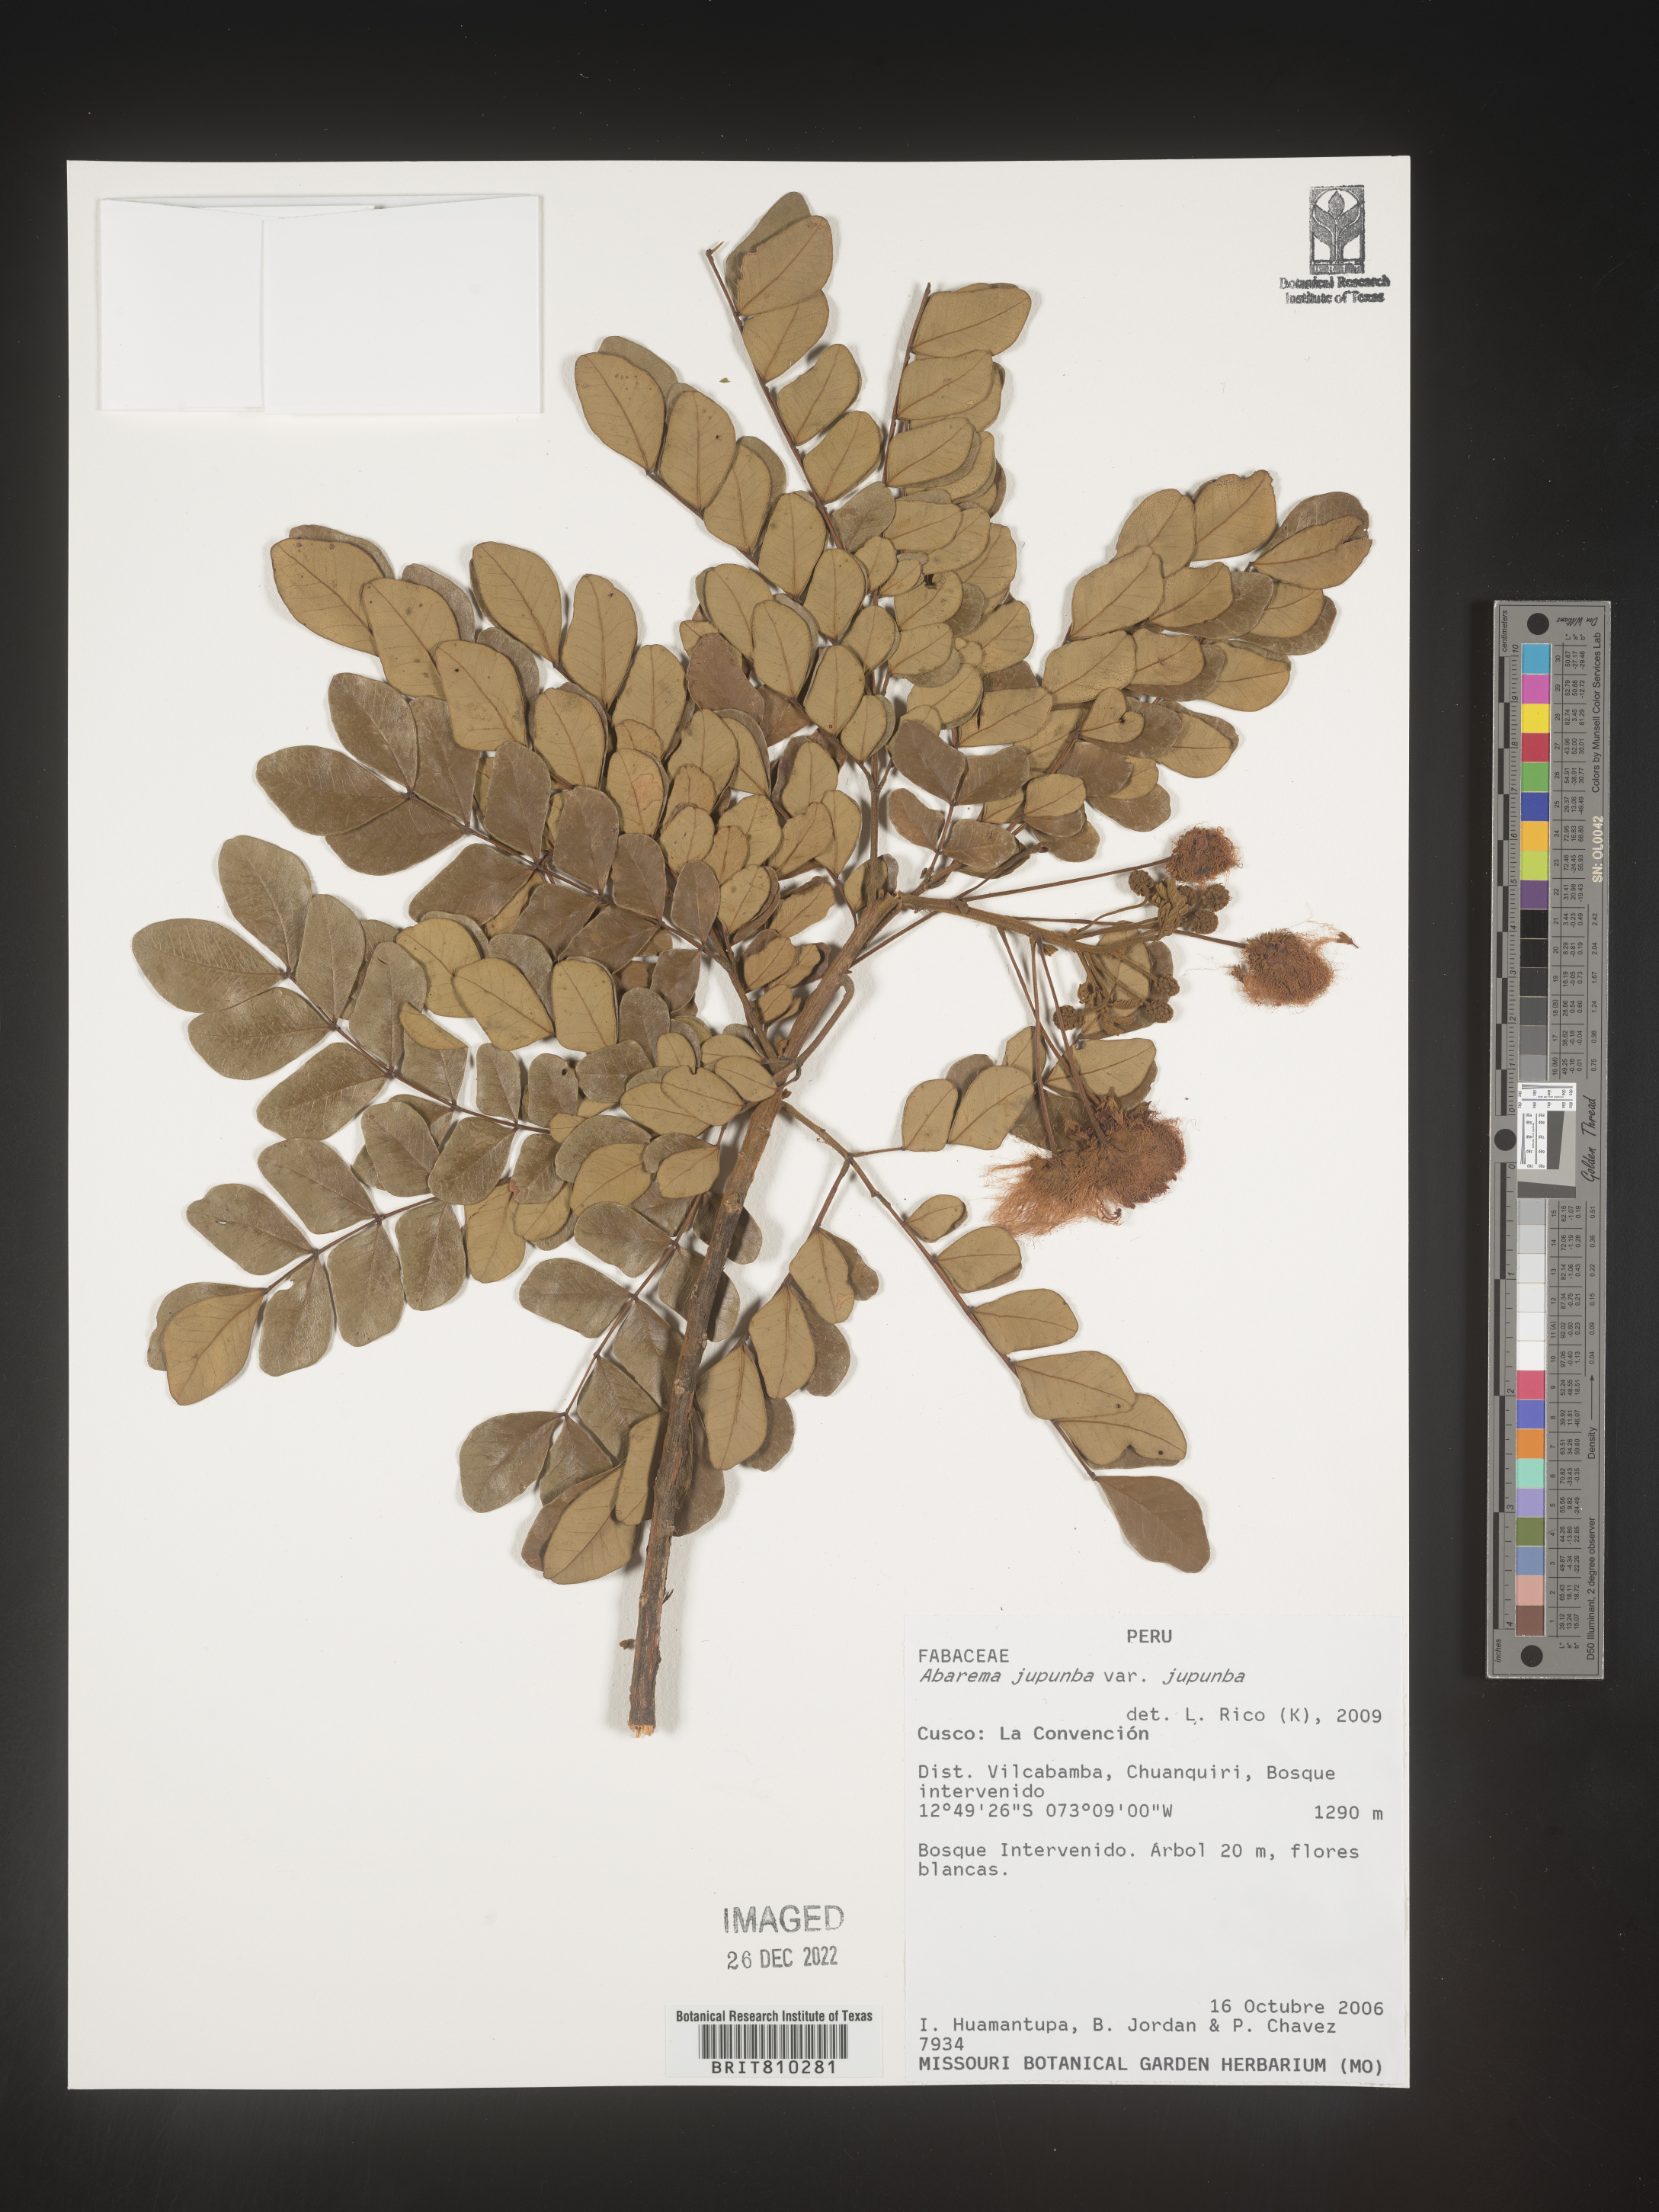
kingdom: Plantae
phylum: Tracheophyta
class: Magnoliopsida
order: Fabales
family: Fabaceae
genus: Abarema
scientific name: Abarema
